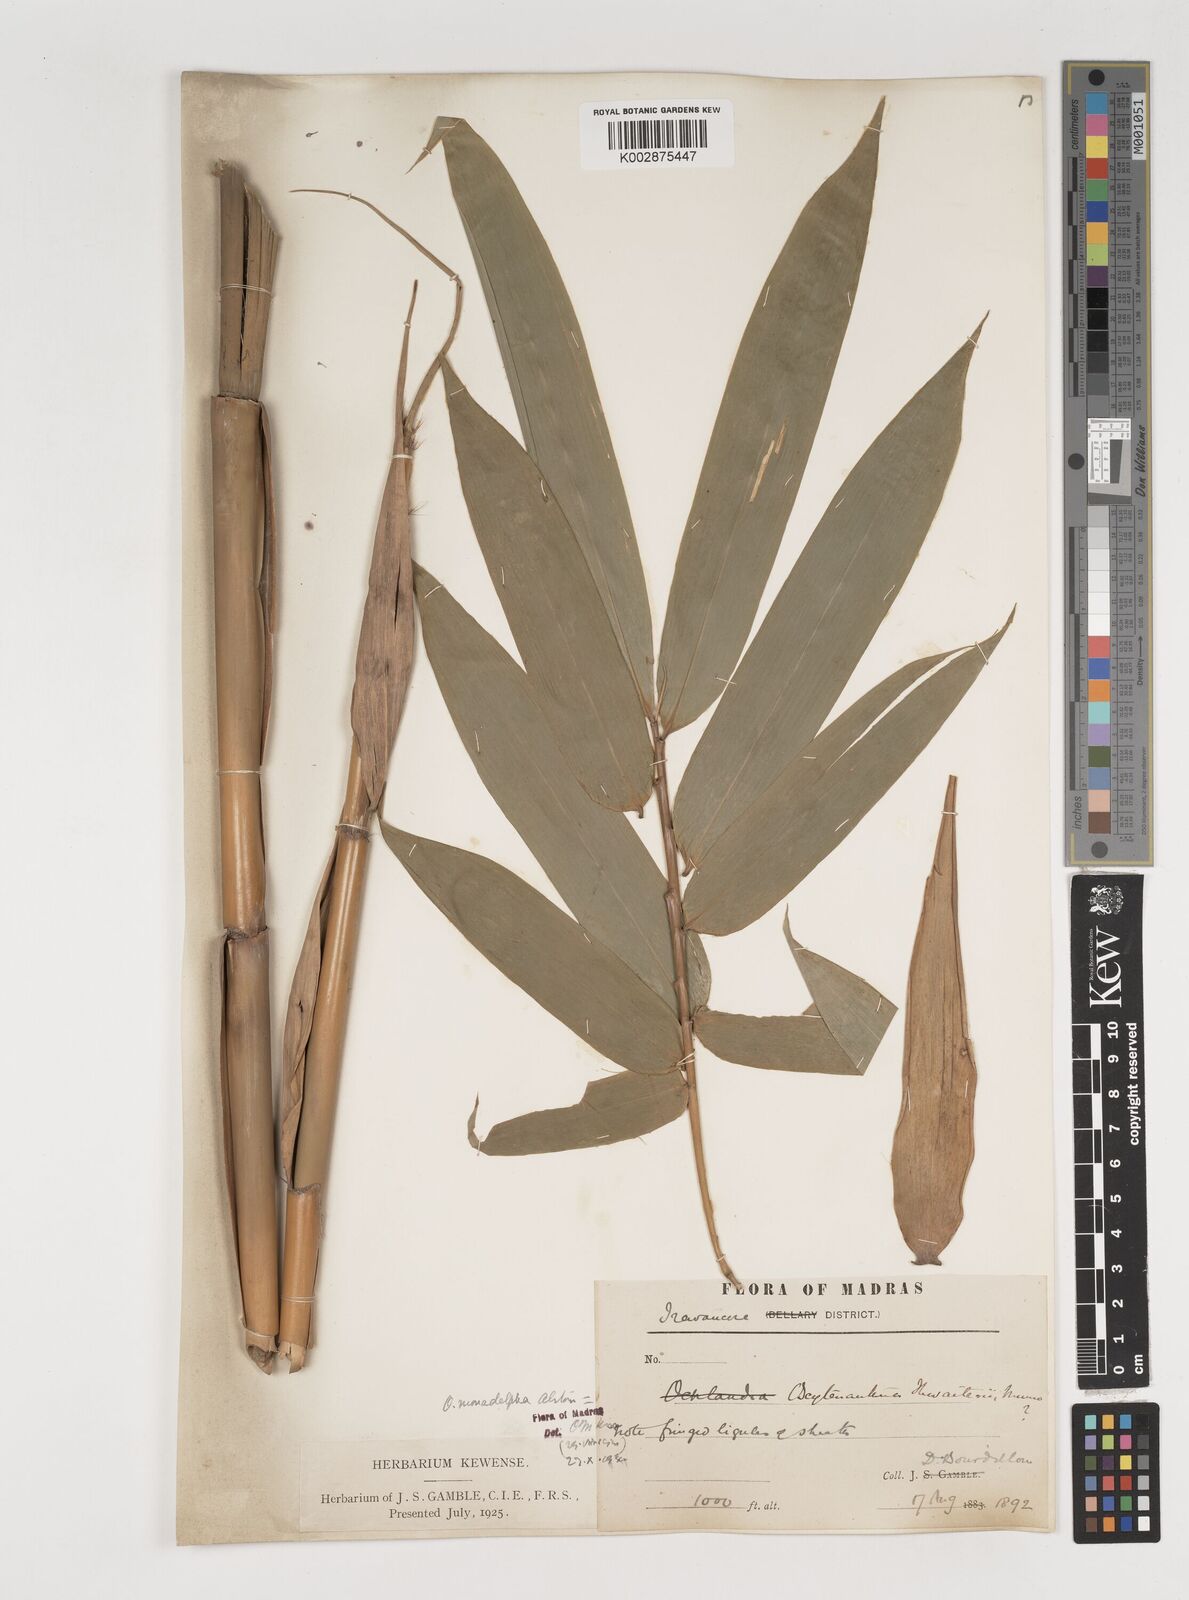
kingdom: Plantae
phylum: Tracheophyta
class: Liliopsida
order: Poales
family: Poaceae
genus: Pseudoxytenanthera
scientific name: Pseudoxytenanthera monadelpha
